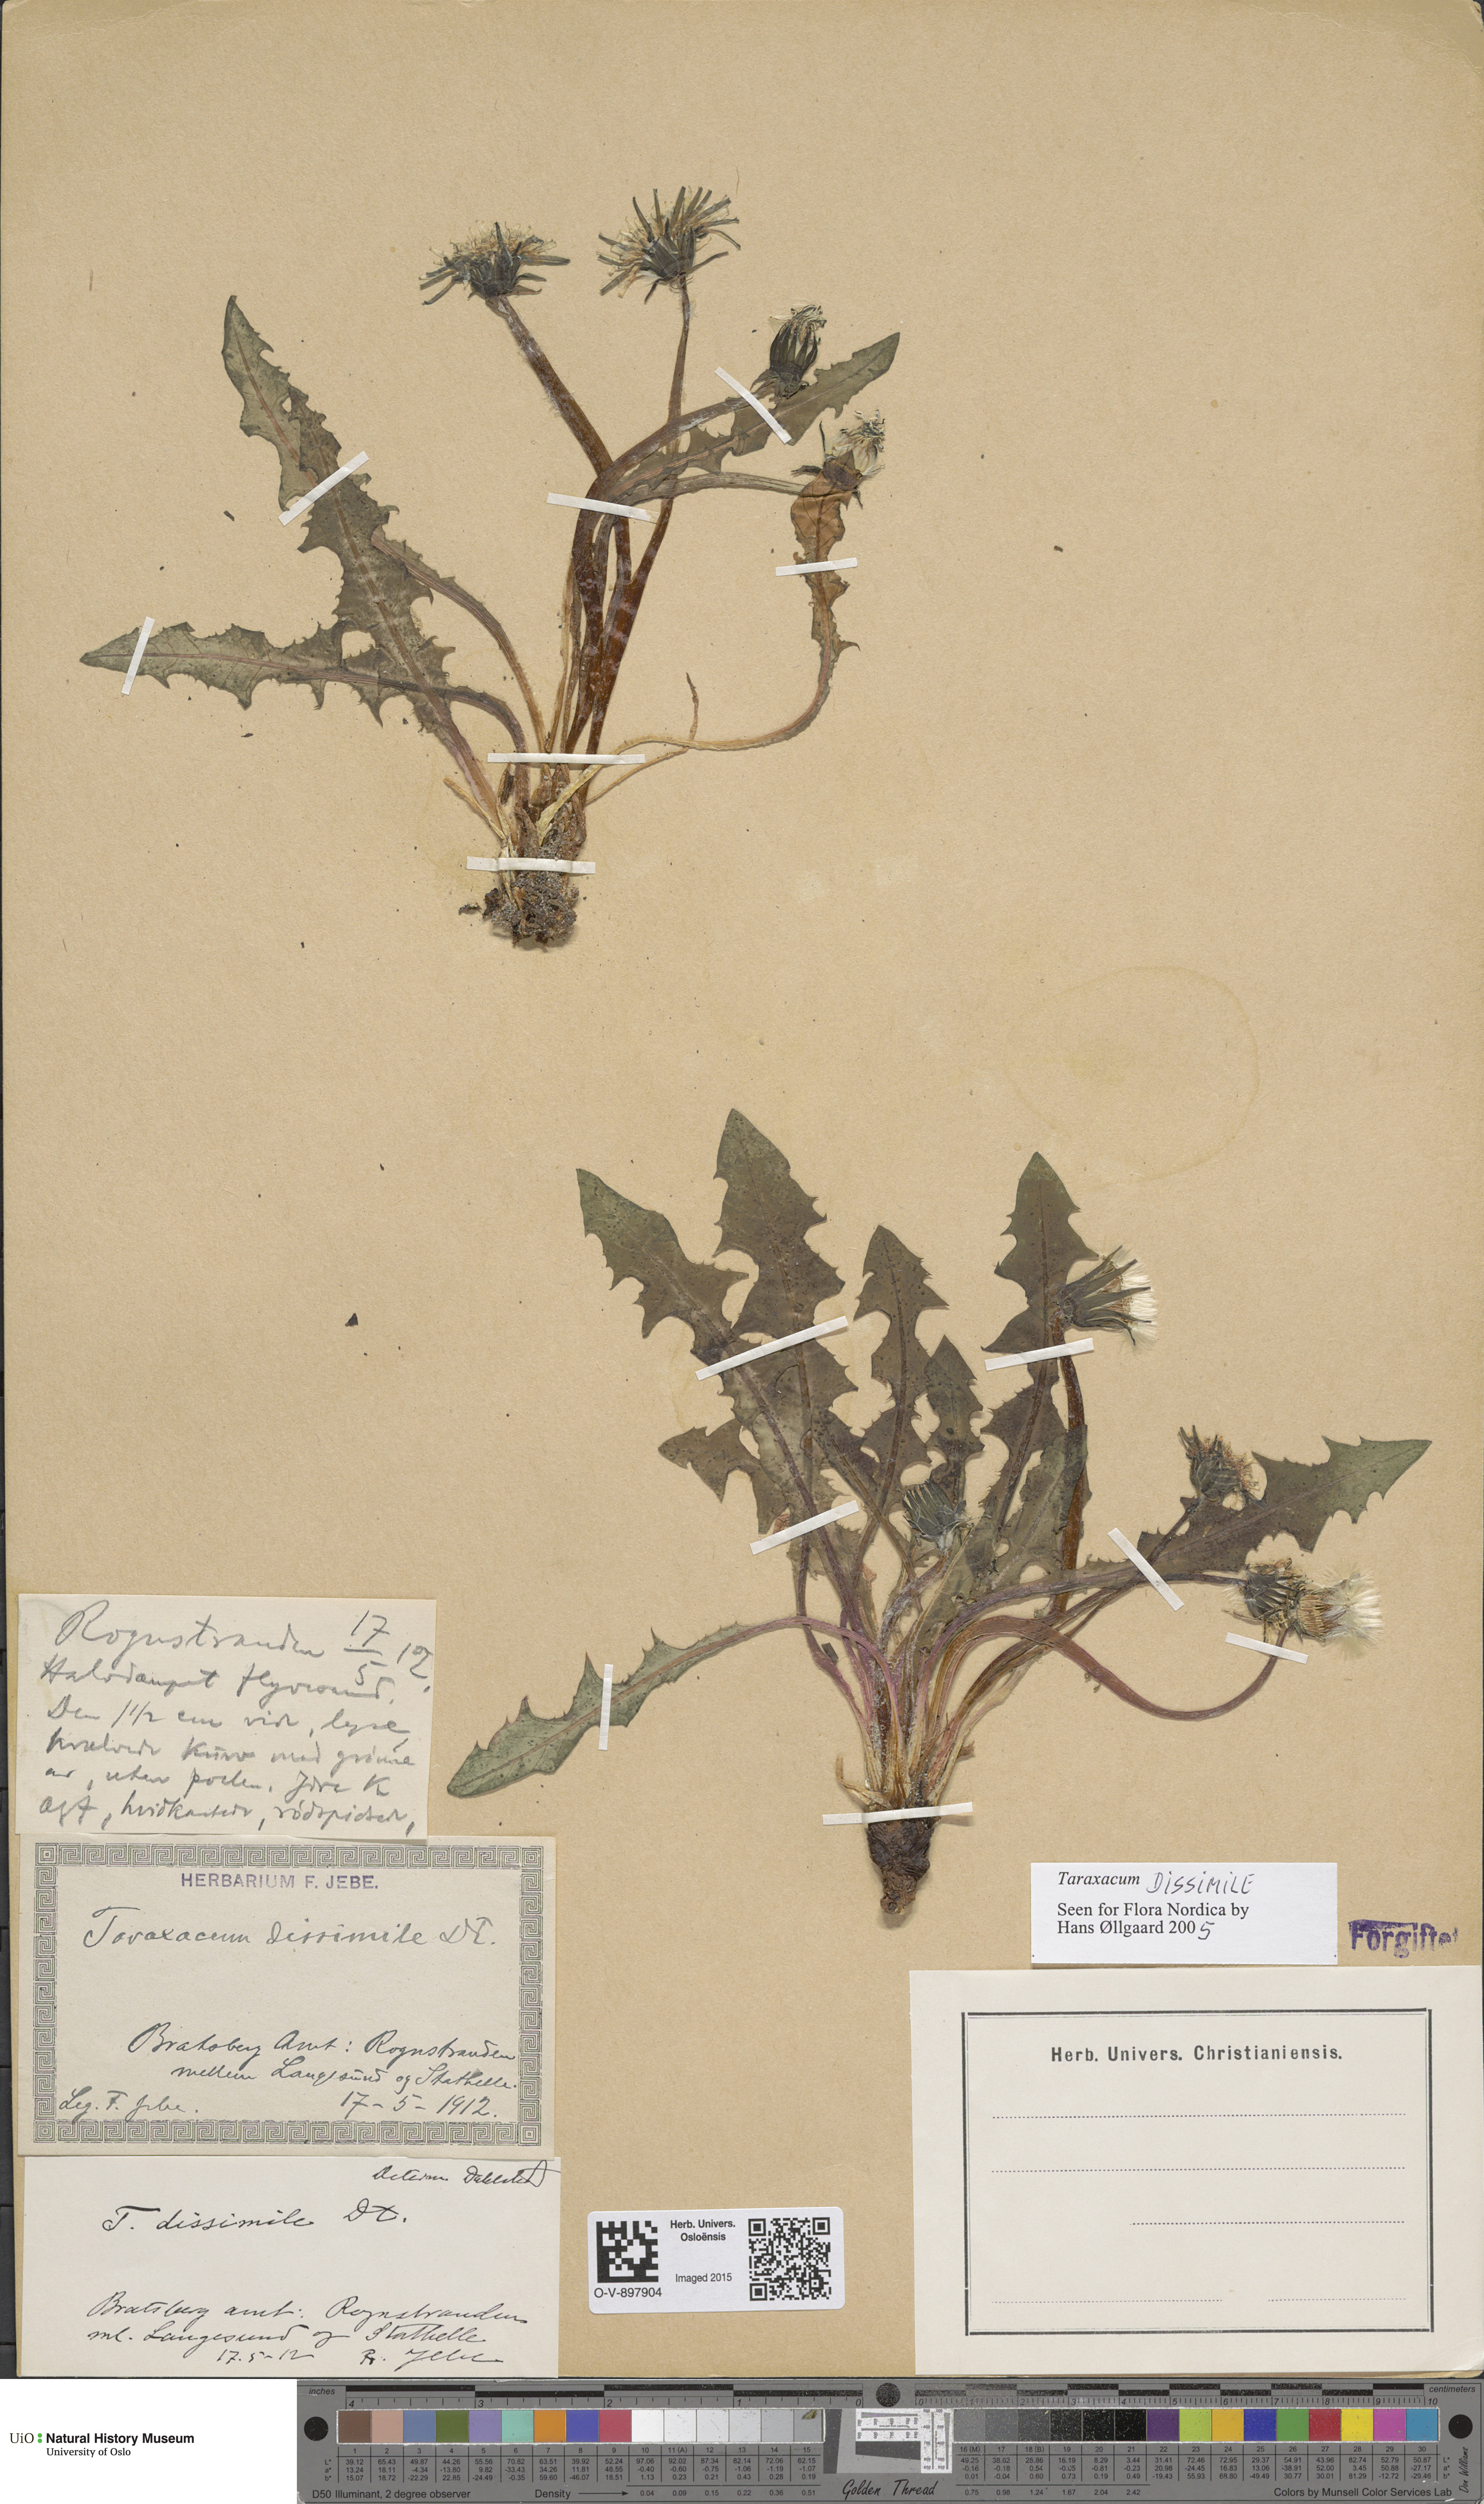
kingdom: Plantae
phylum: Tracheophyta
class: Magnoliopsida
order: Asterales
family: Asteraceae
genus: Taraxacum
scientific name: Taraxacum dissimile
